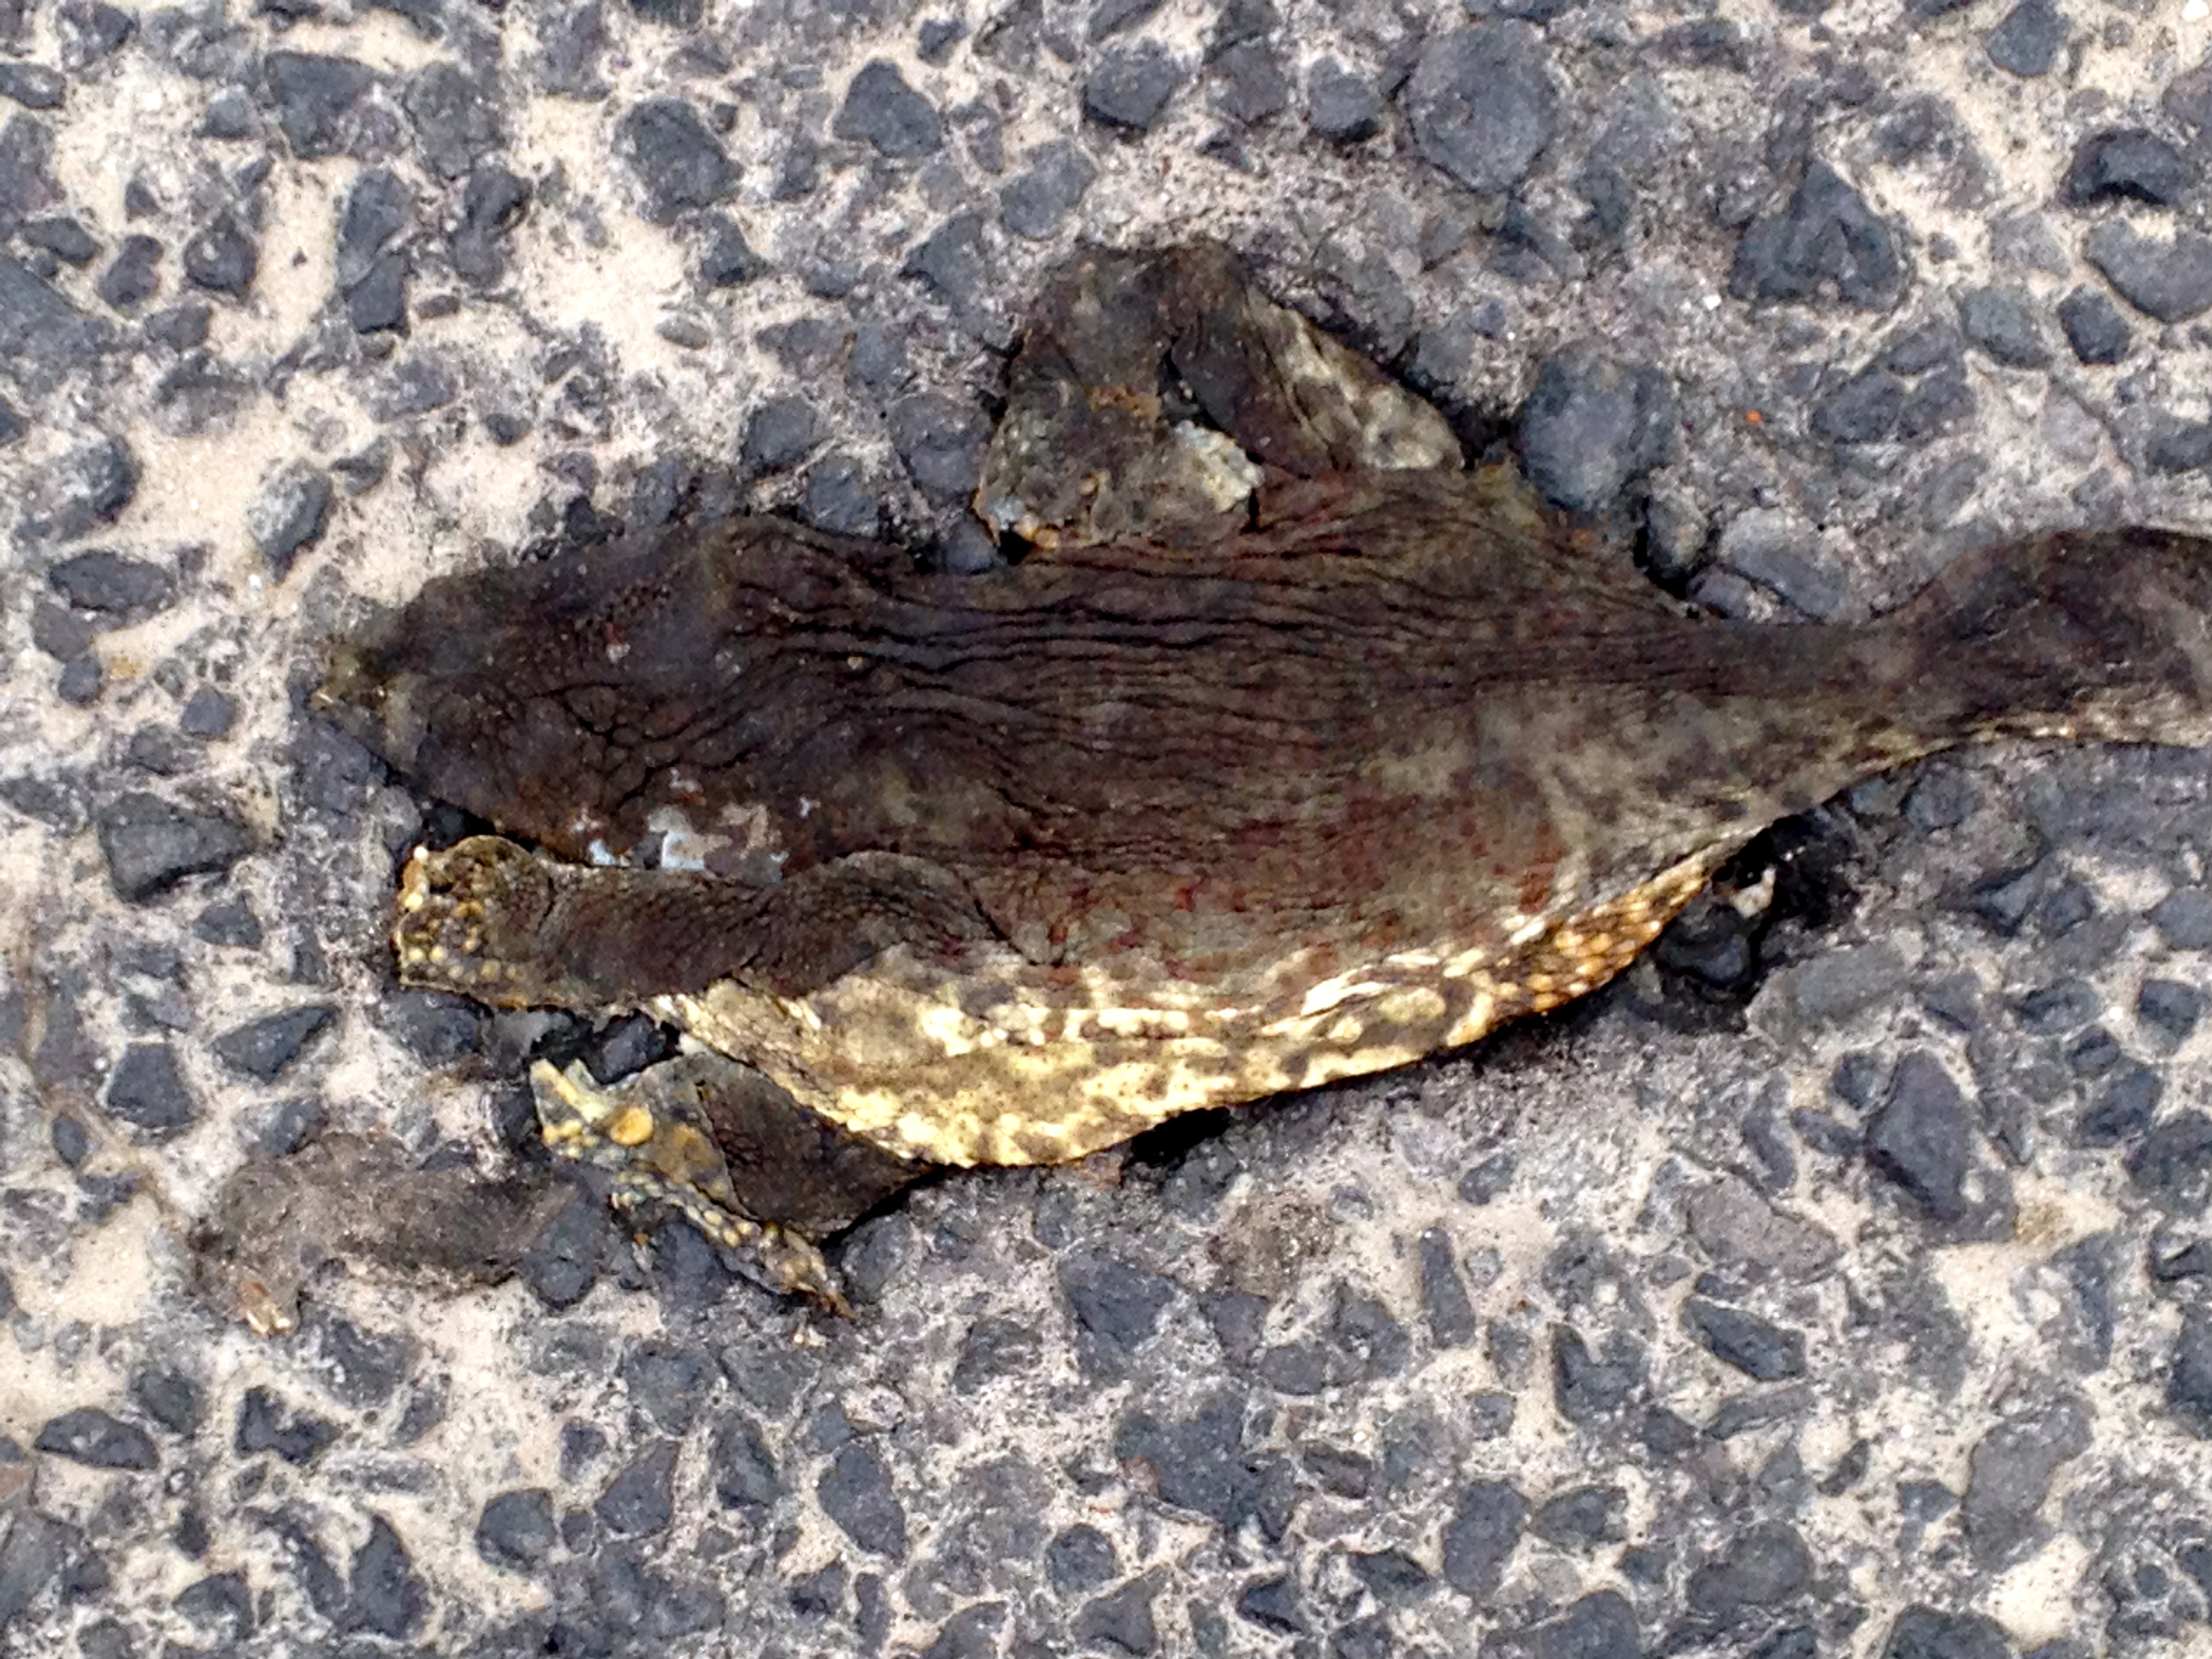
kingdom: Animalia
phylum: Chordata
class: Amphibia
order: Anura
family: Bufonidae
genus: Bufo
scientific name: Bufo bufo
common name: Common toad
